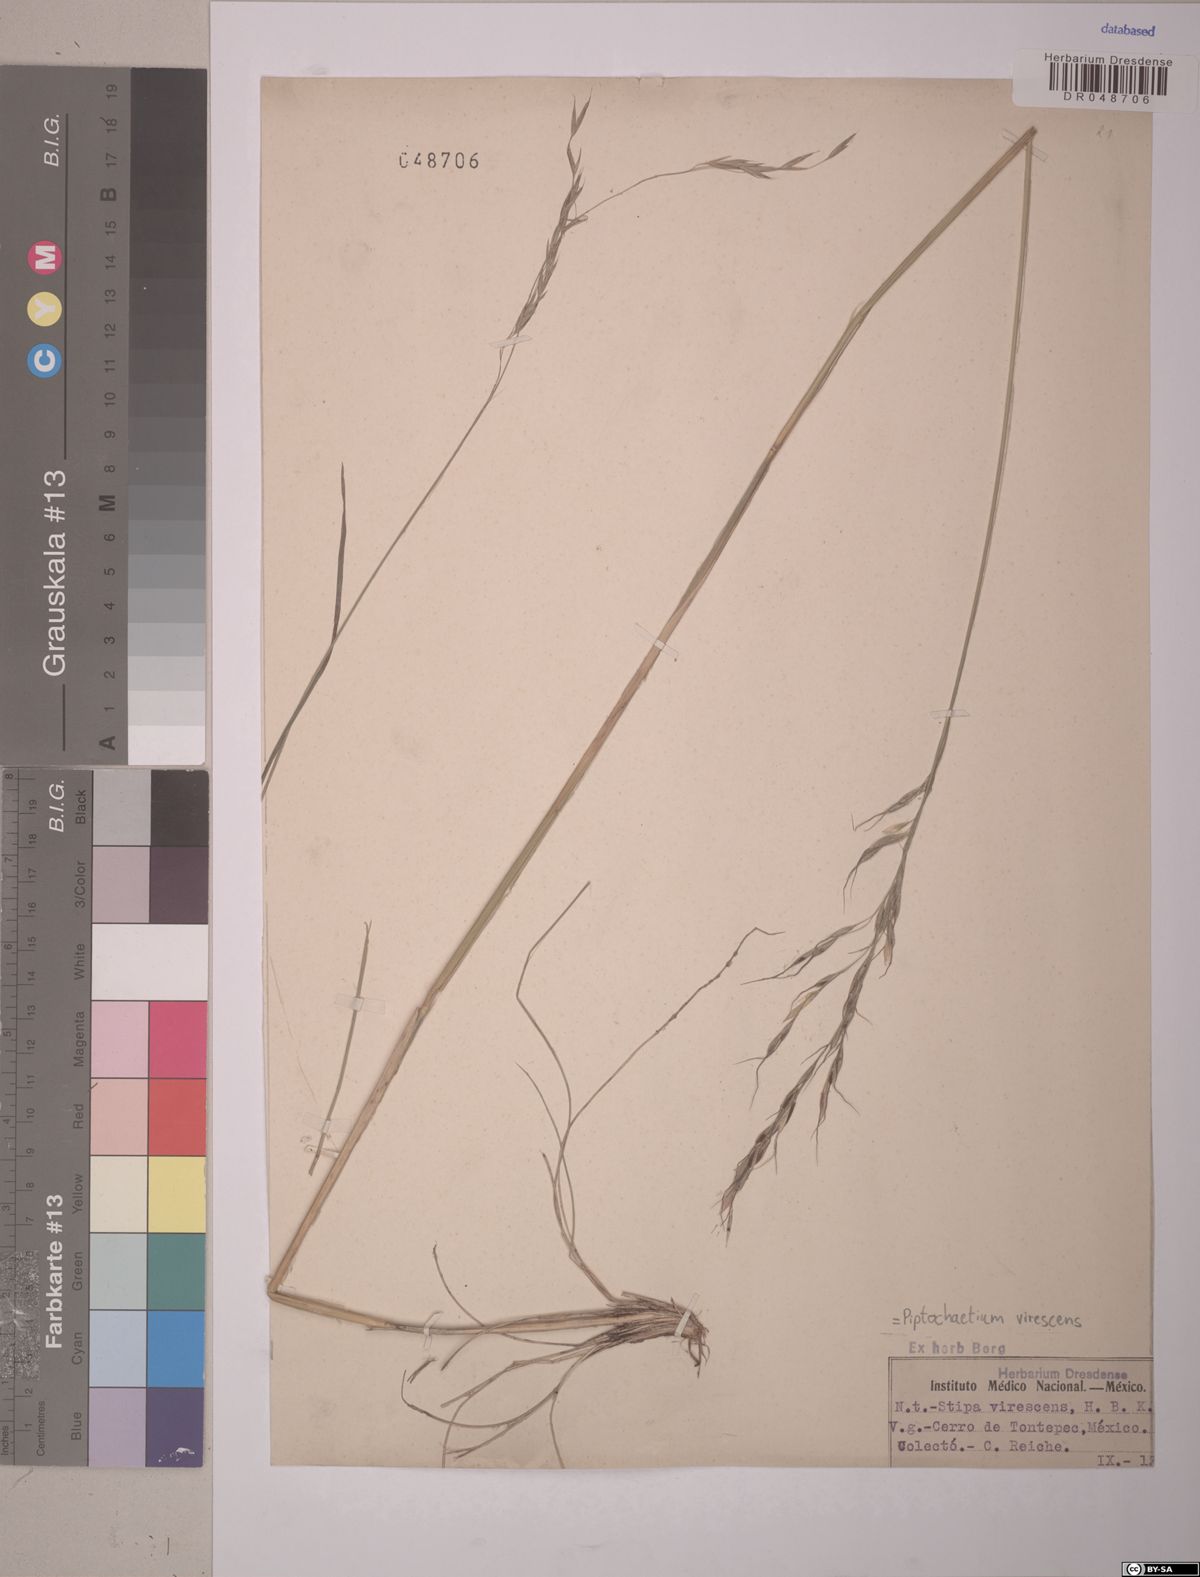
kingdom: Plantae
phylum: Tracheophyta
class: Liliopsida
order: Poales
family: Poaceae
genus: Piptochaetium
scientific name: Piptochaetium virescens
